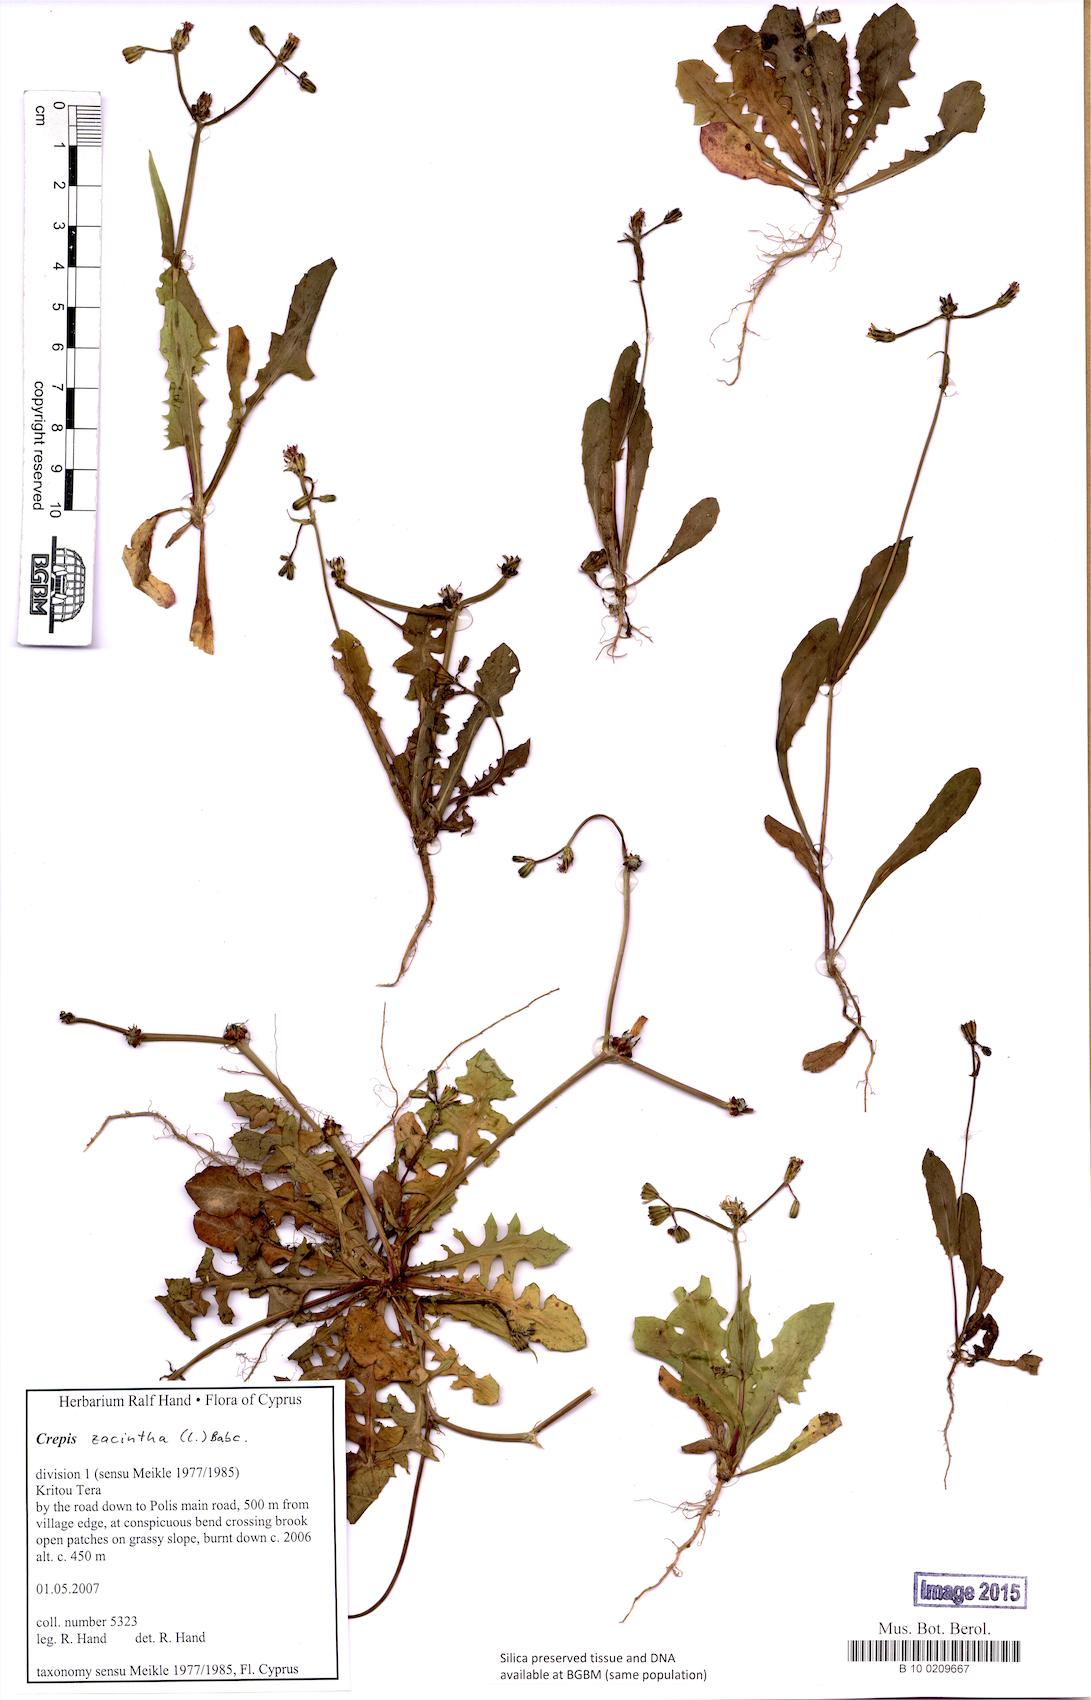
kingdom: Plantae
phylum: Tracheophyta
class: Magnoliopsida
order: Asterales
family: Asteraceae
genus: Crepis
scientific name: Crepis zacintha
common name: Striped hawksbeard
